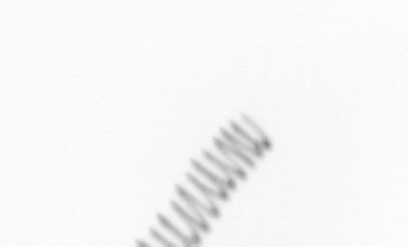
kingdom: Chromista
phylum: Ochrophyta
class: Bacillariophyceae
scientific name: Bacillariophyceae
